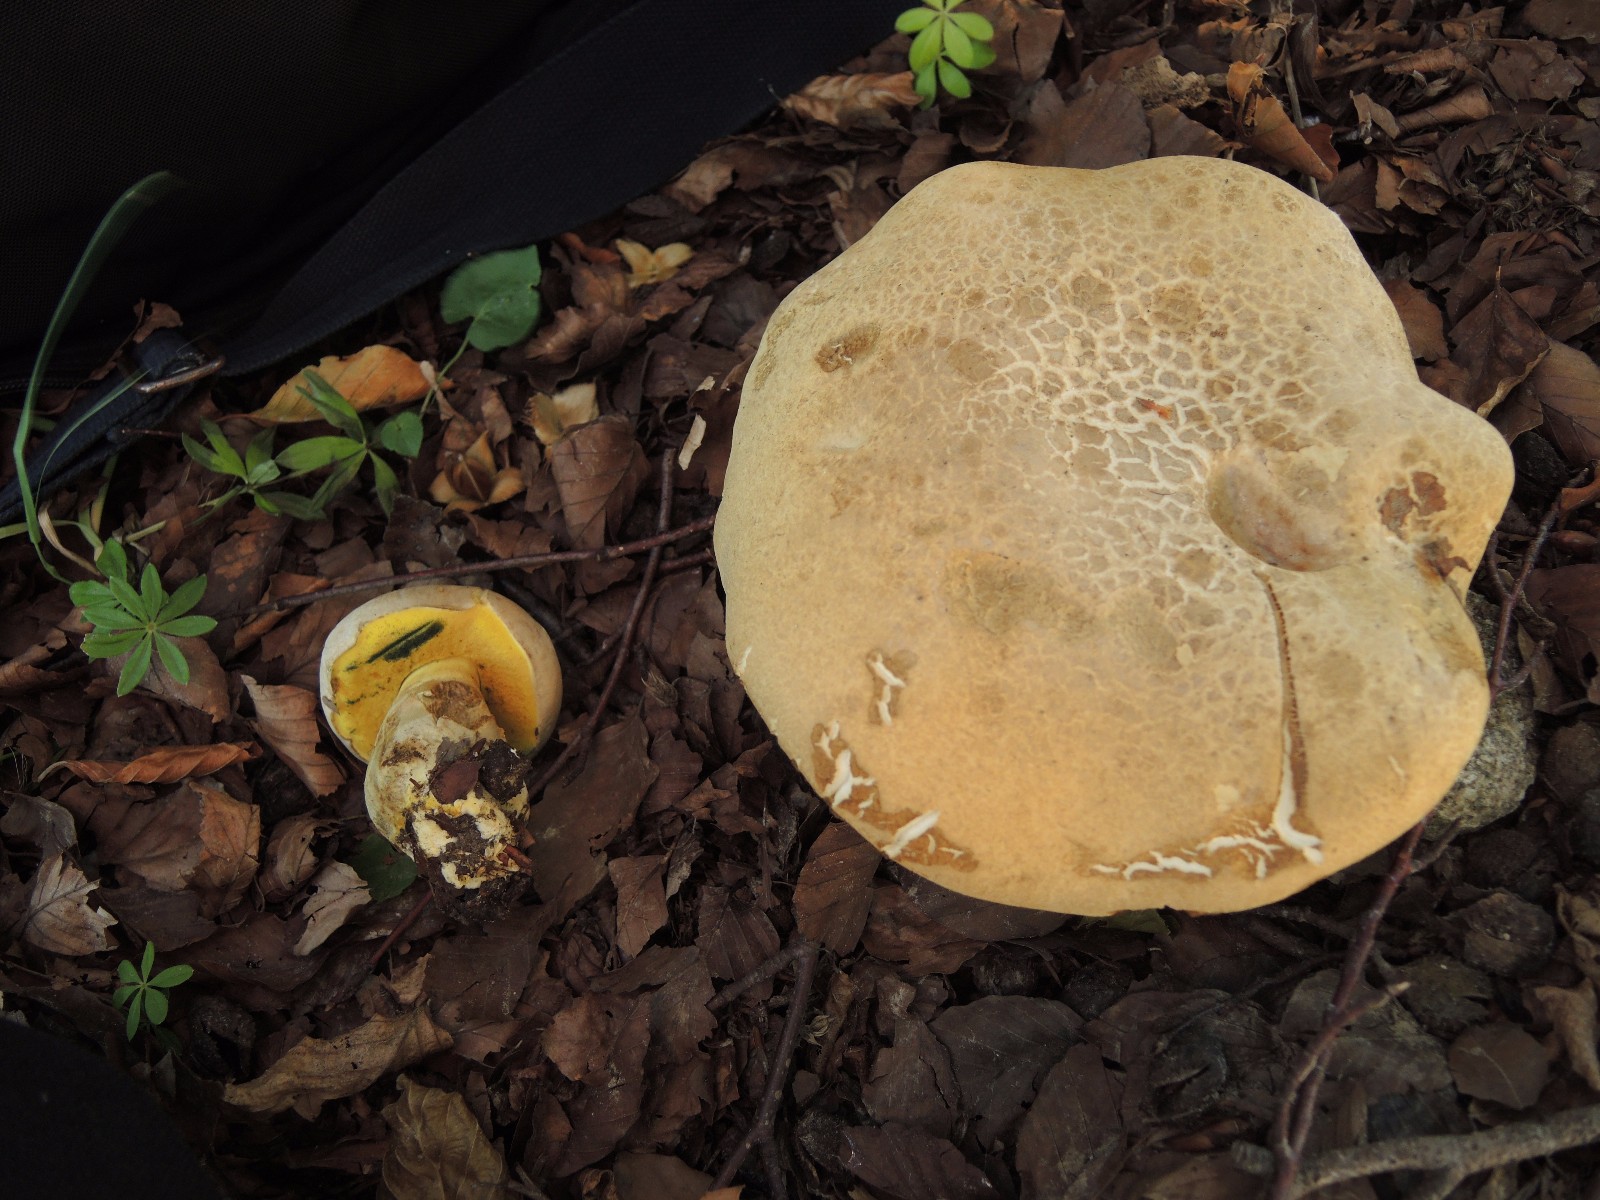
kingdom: Fungi
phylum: Basidiomycota
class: Agaricomycetes
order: Boletales
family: Boletaceae
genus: Caloboletus
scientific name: Caloboletus radicans
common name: rod-rørhat
